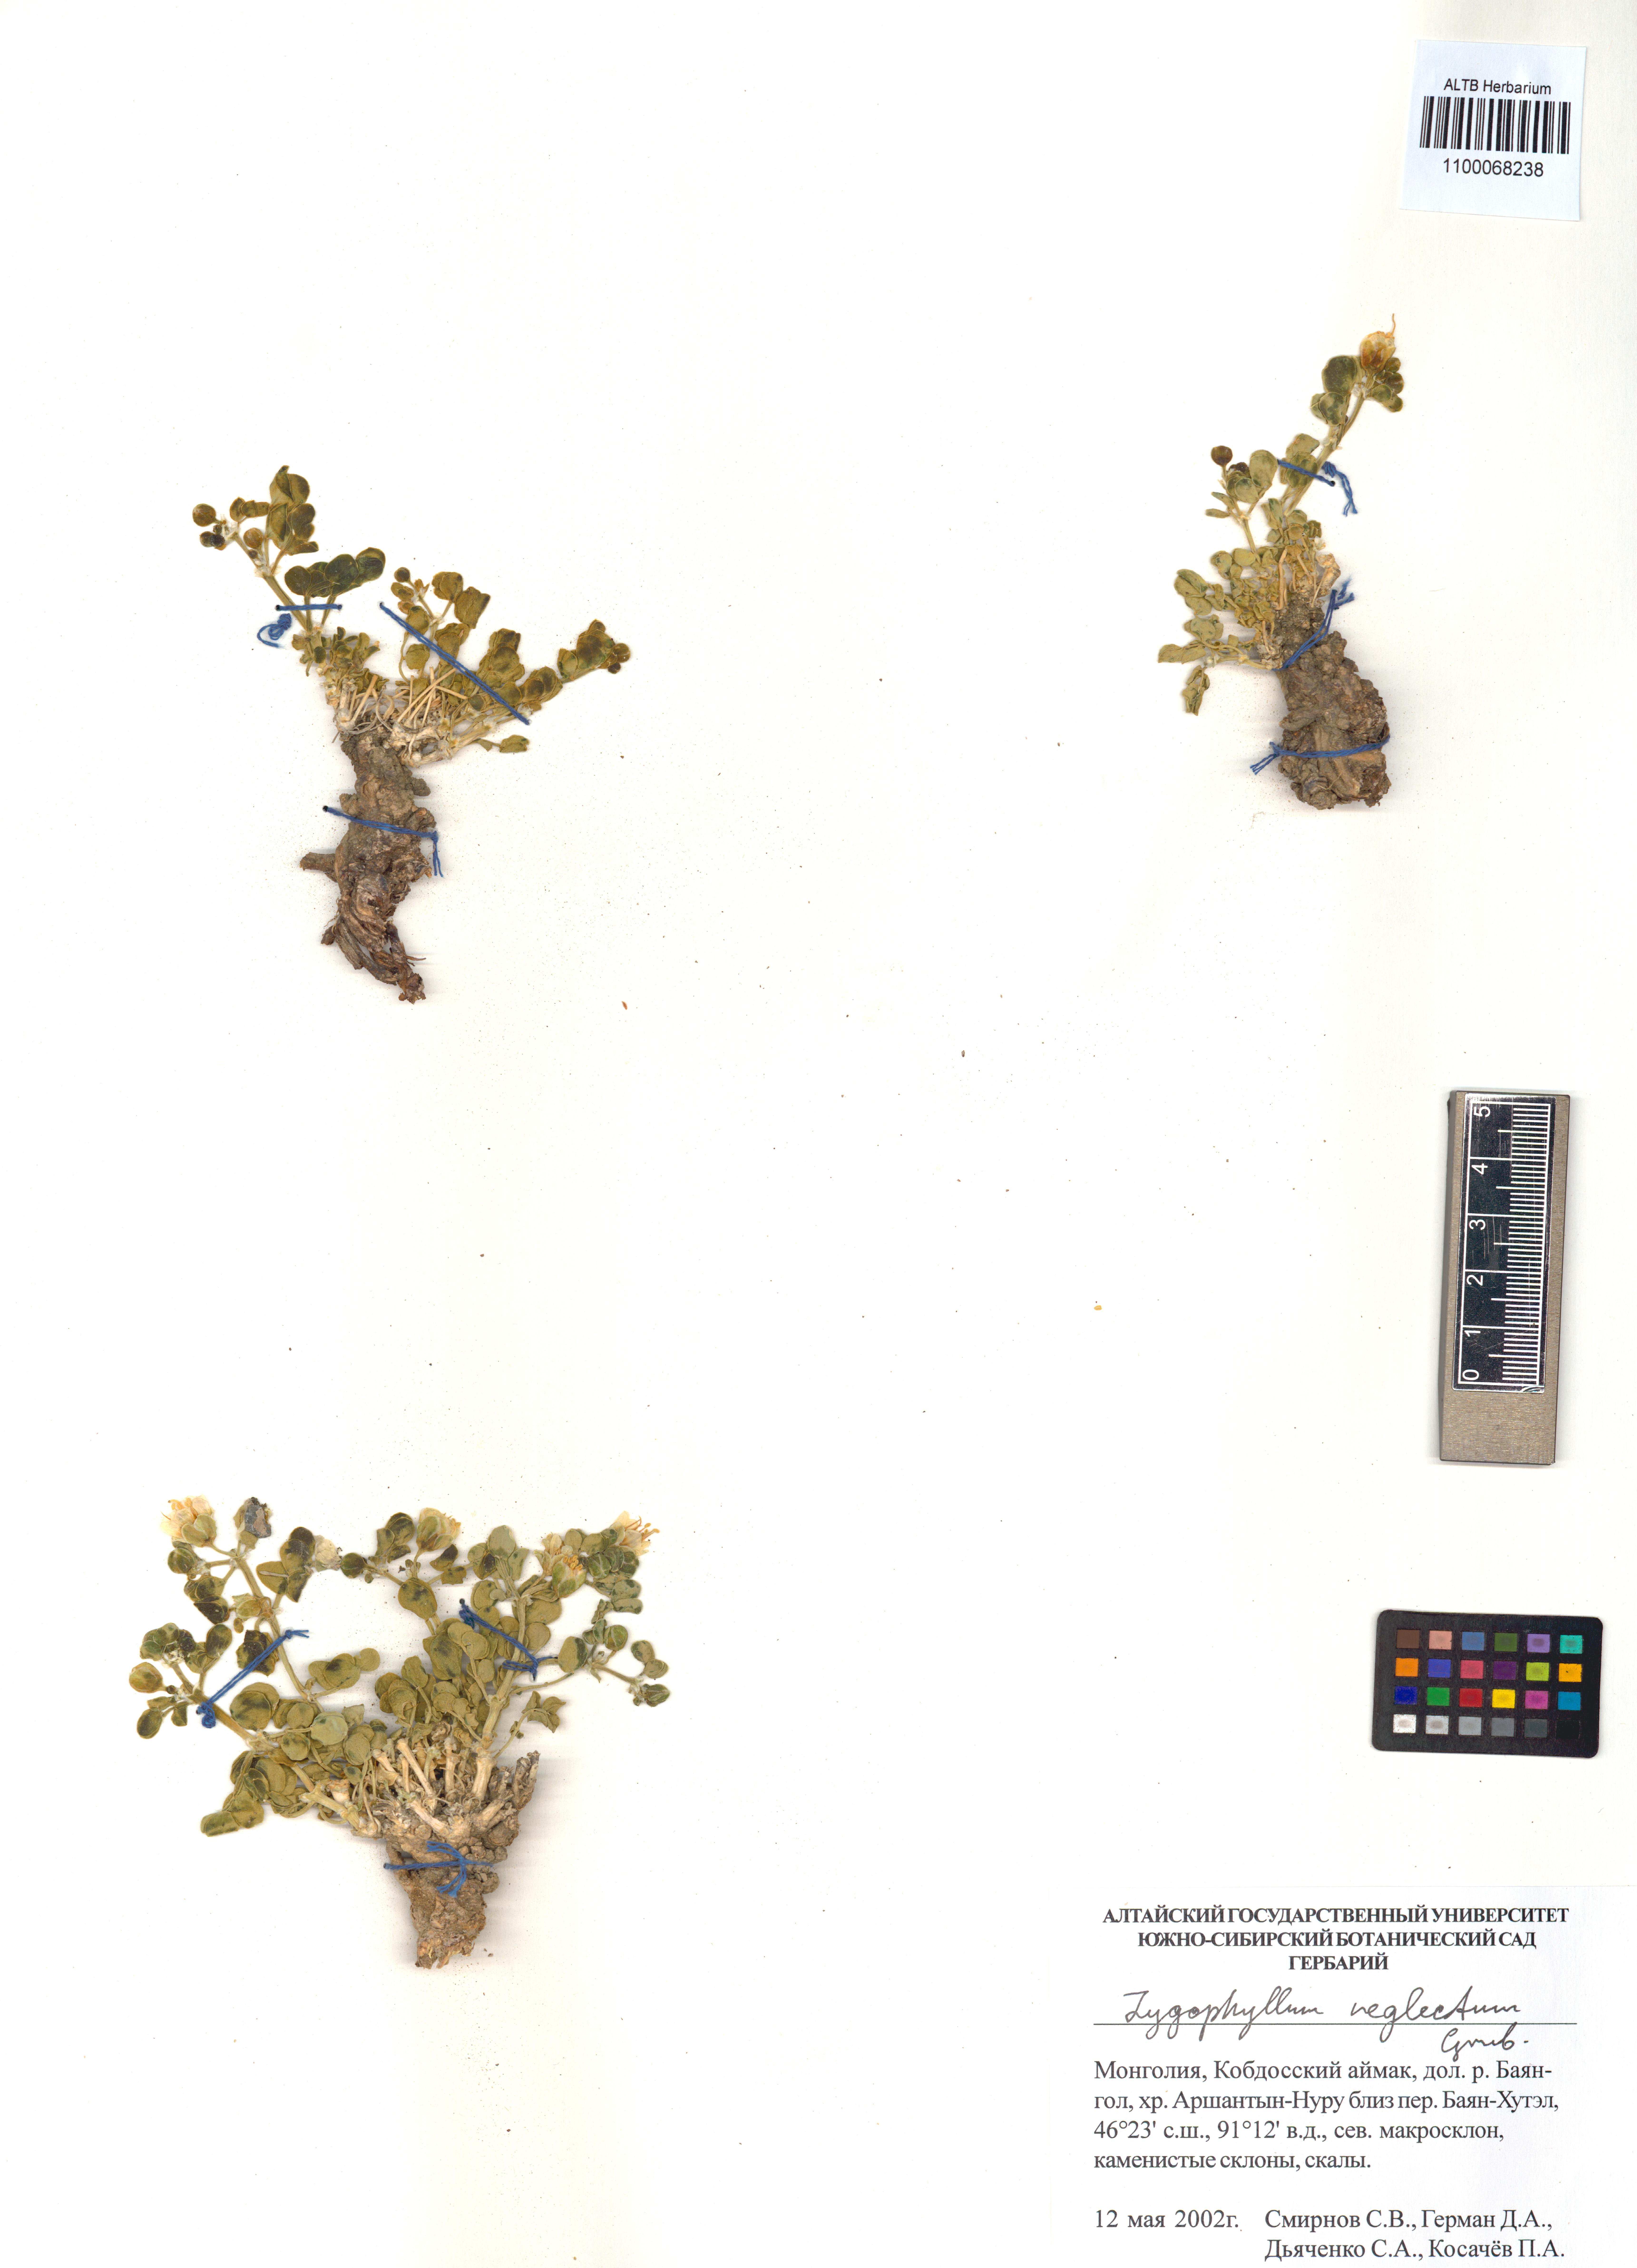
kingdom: Plantae
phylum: Tracheophyta
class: Magnoliopsida
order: Zygophyllales
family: Zygophyllaceae
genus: Zygophyllum
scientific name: Zygophyllum neglectum
